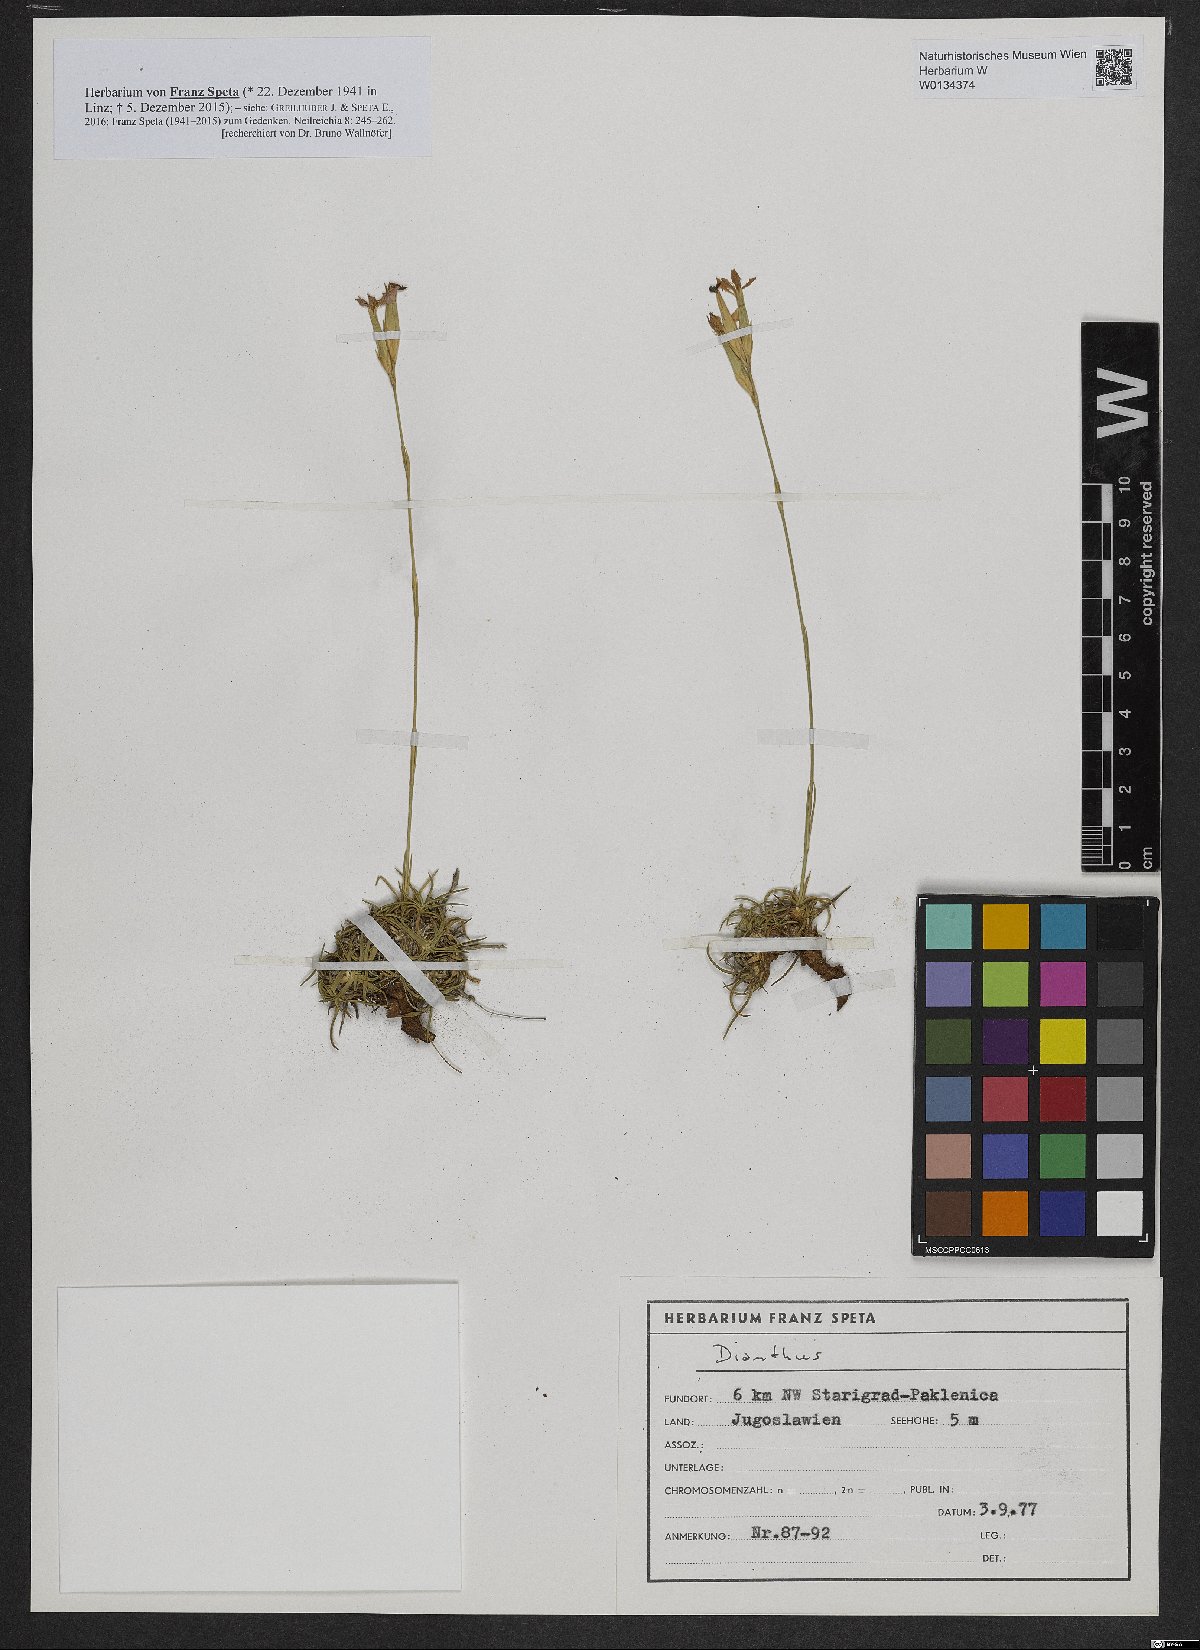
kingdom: Plantae
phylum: Tracheophyta
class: Magnoliopsida
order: Caryophyllales
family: Caryophyllaceae
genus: Dianthus
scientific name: Dianthus
